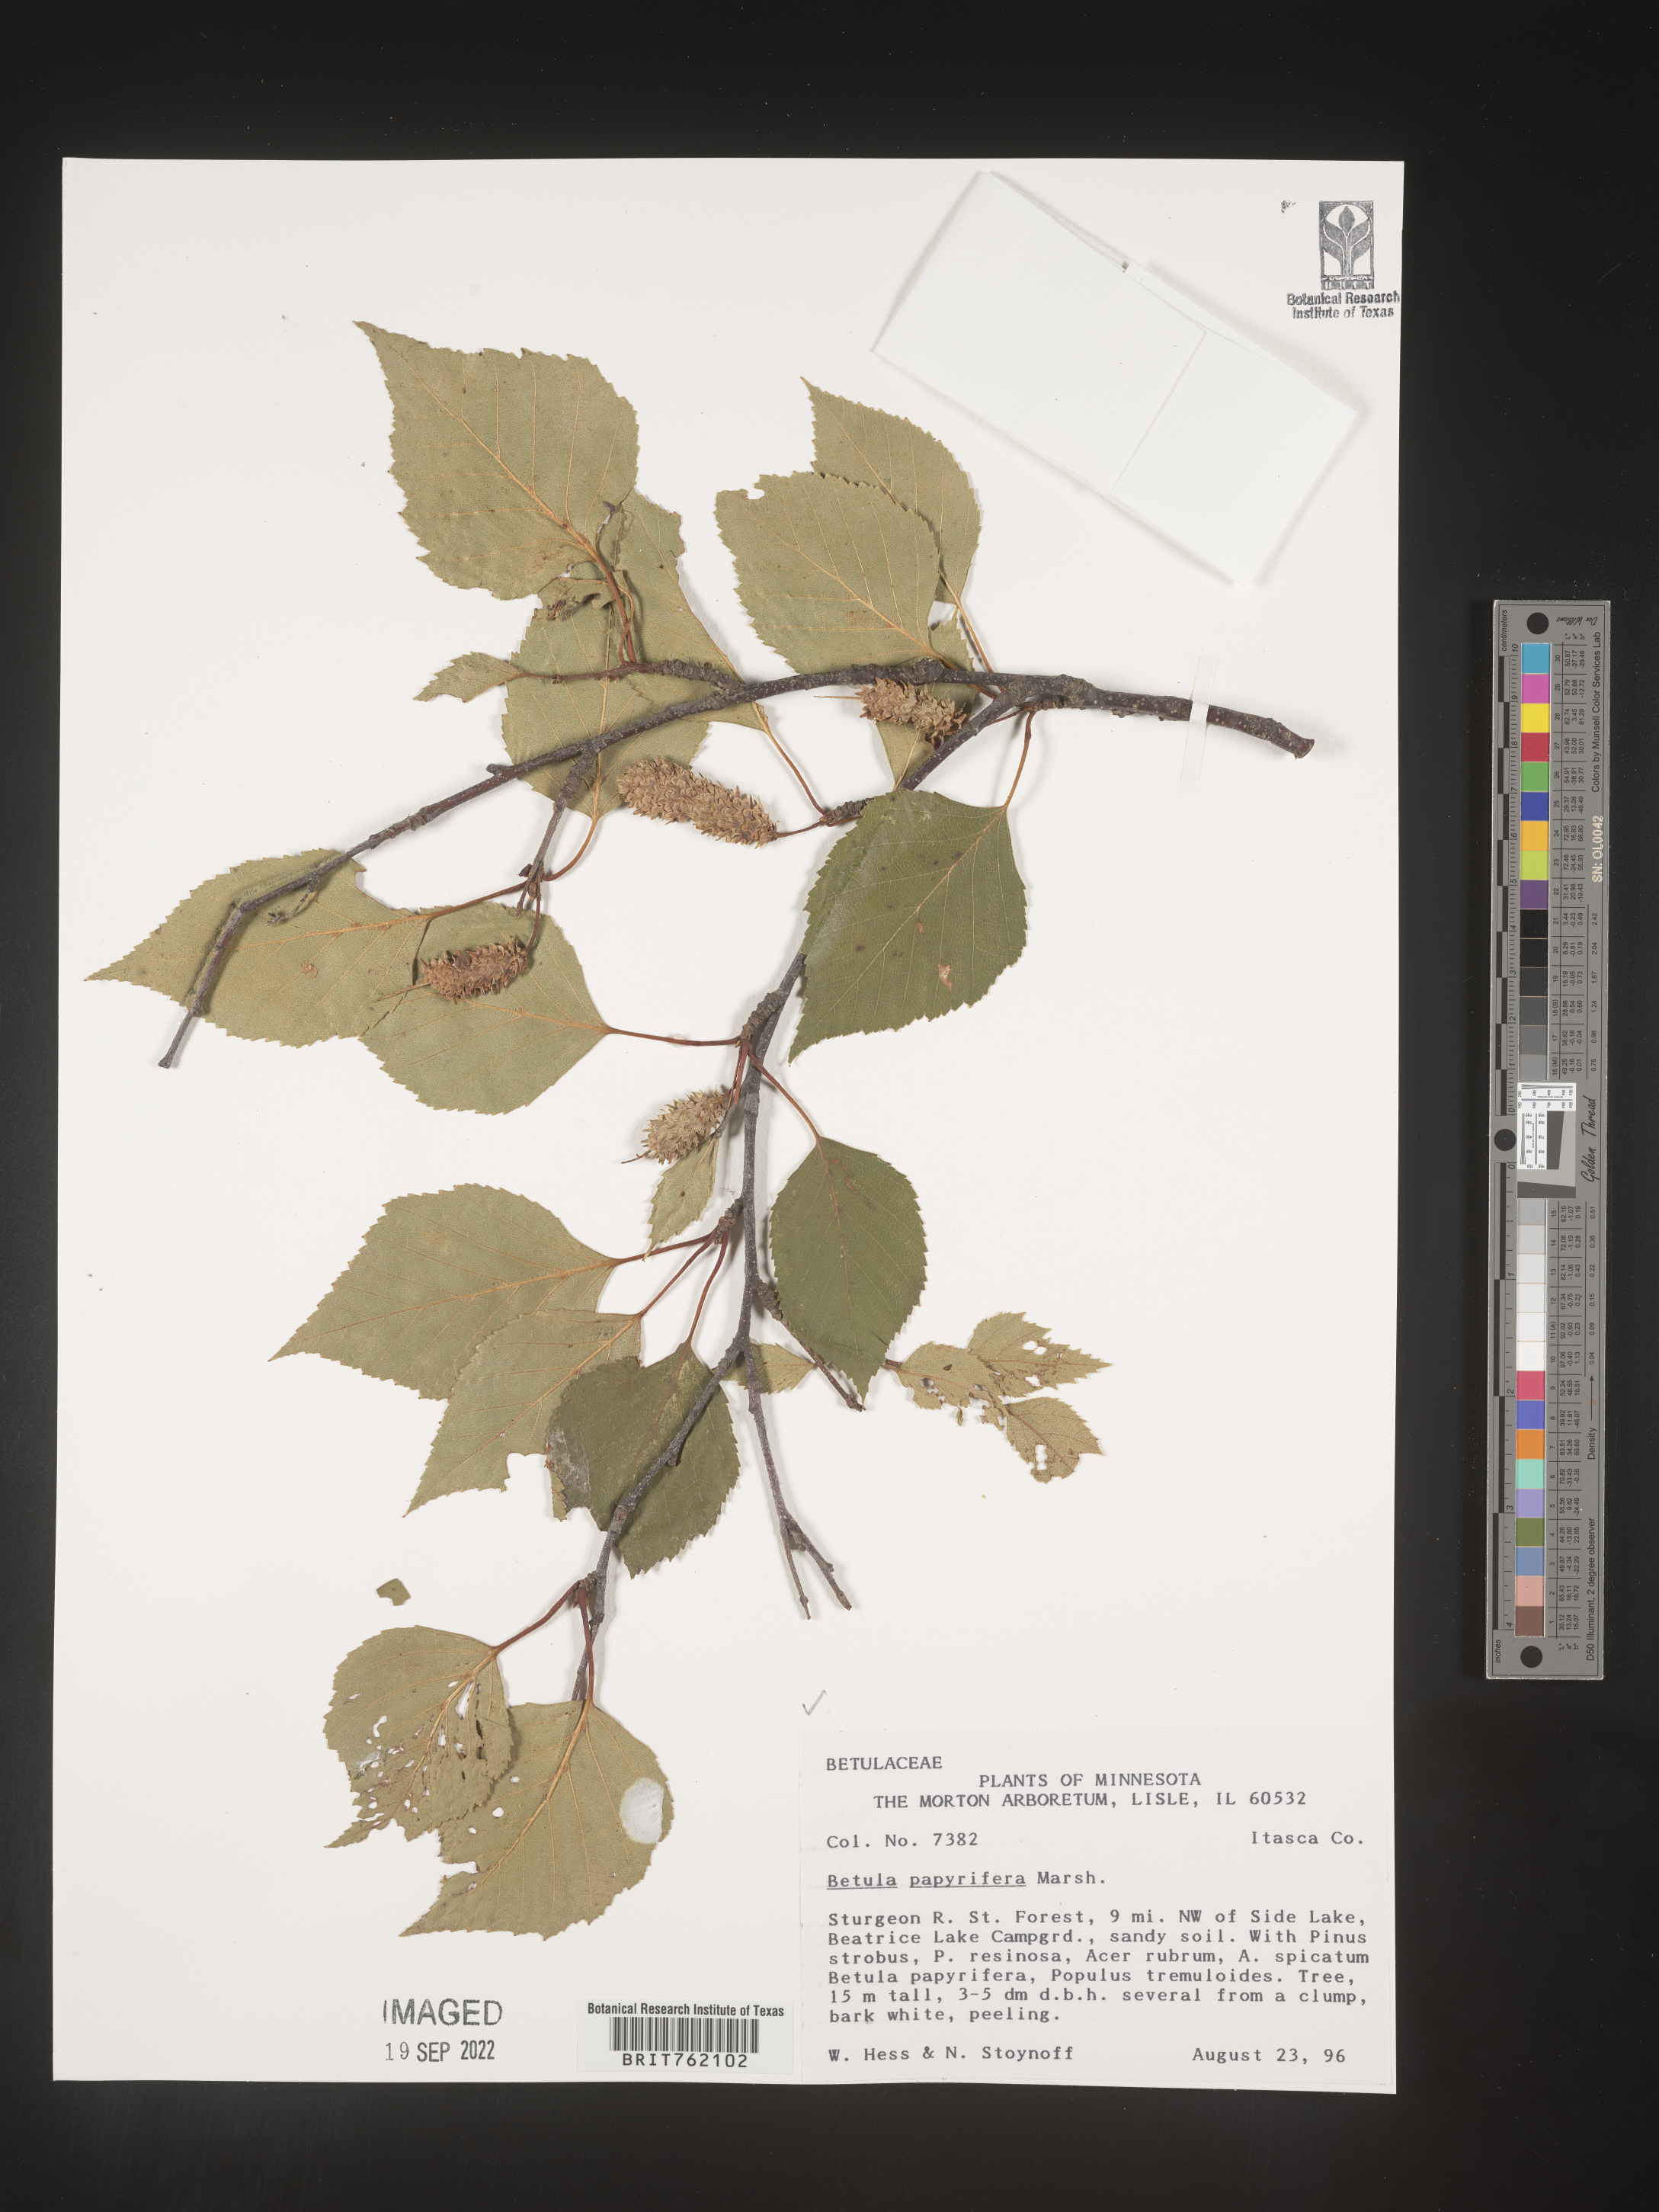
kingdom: Plantae
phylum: Tracheophyta
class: Magnoliopsida
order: Fagales
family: Betulaceae
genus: Betula
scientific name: Betula papyrifera
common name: Paper birch
